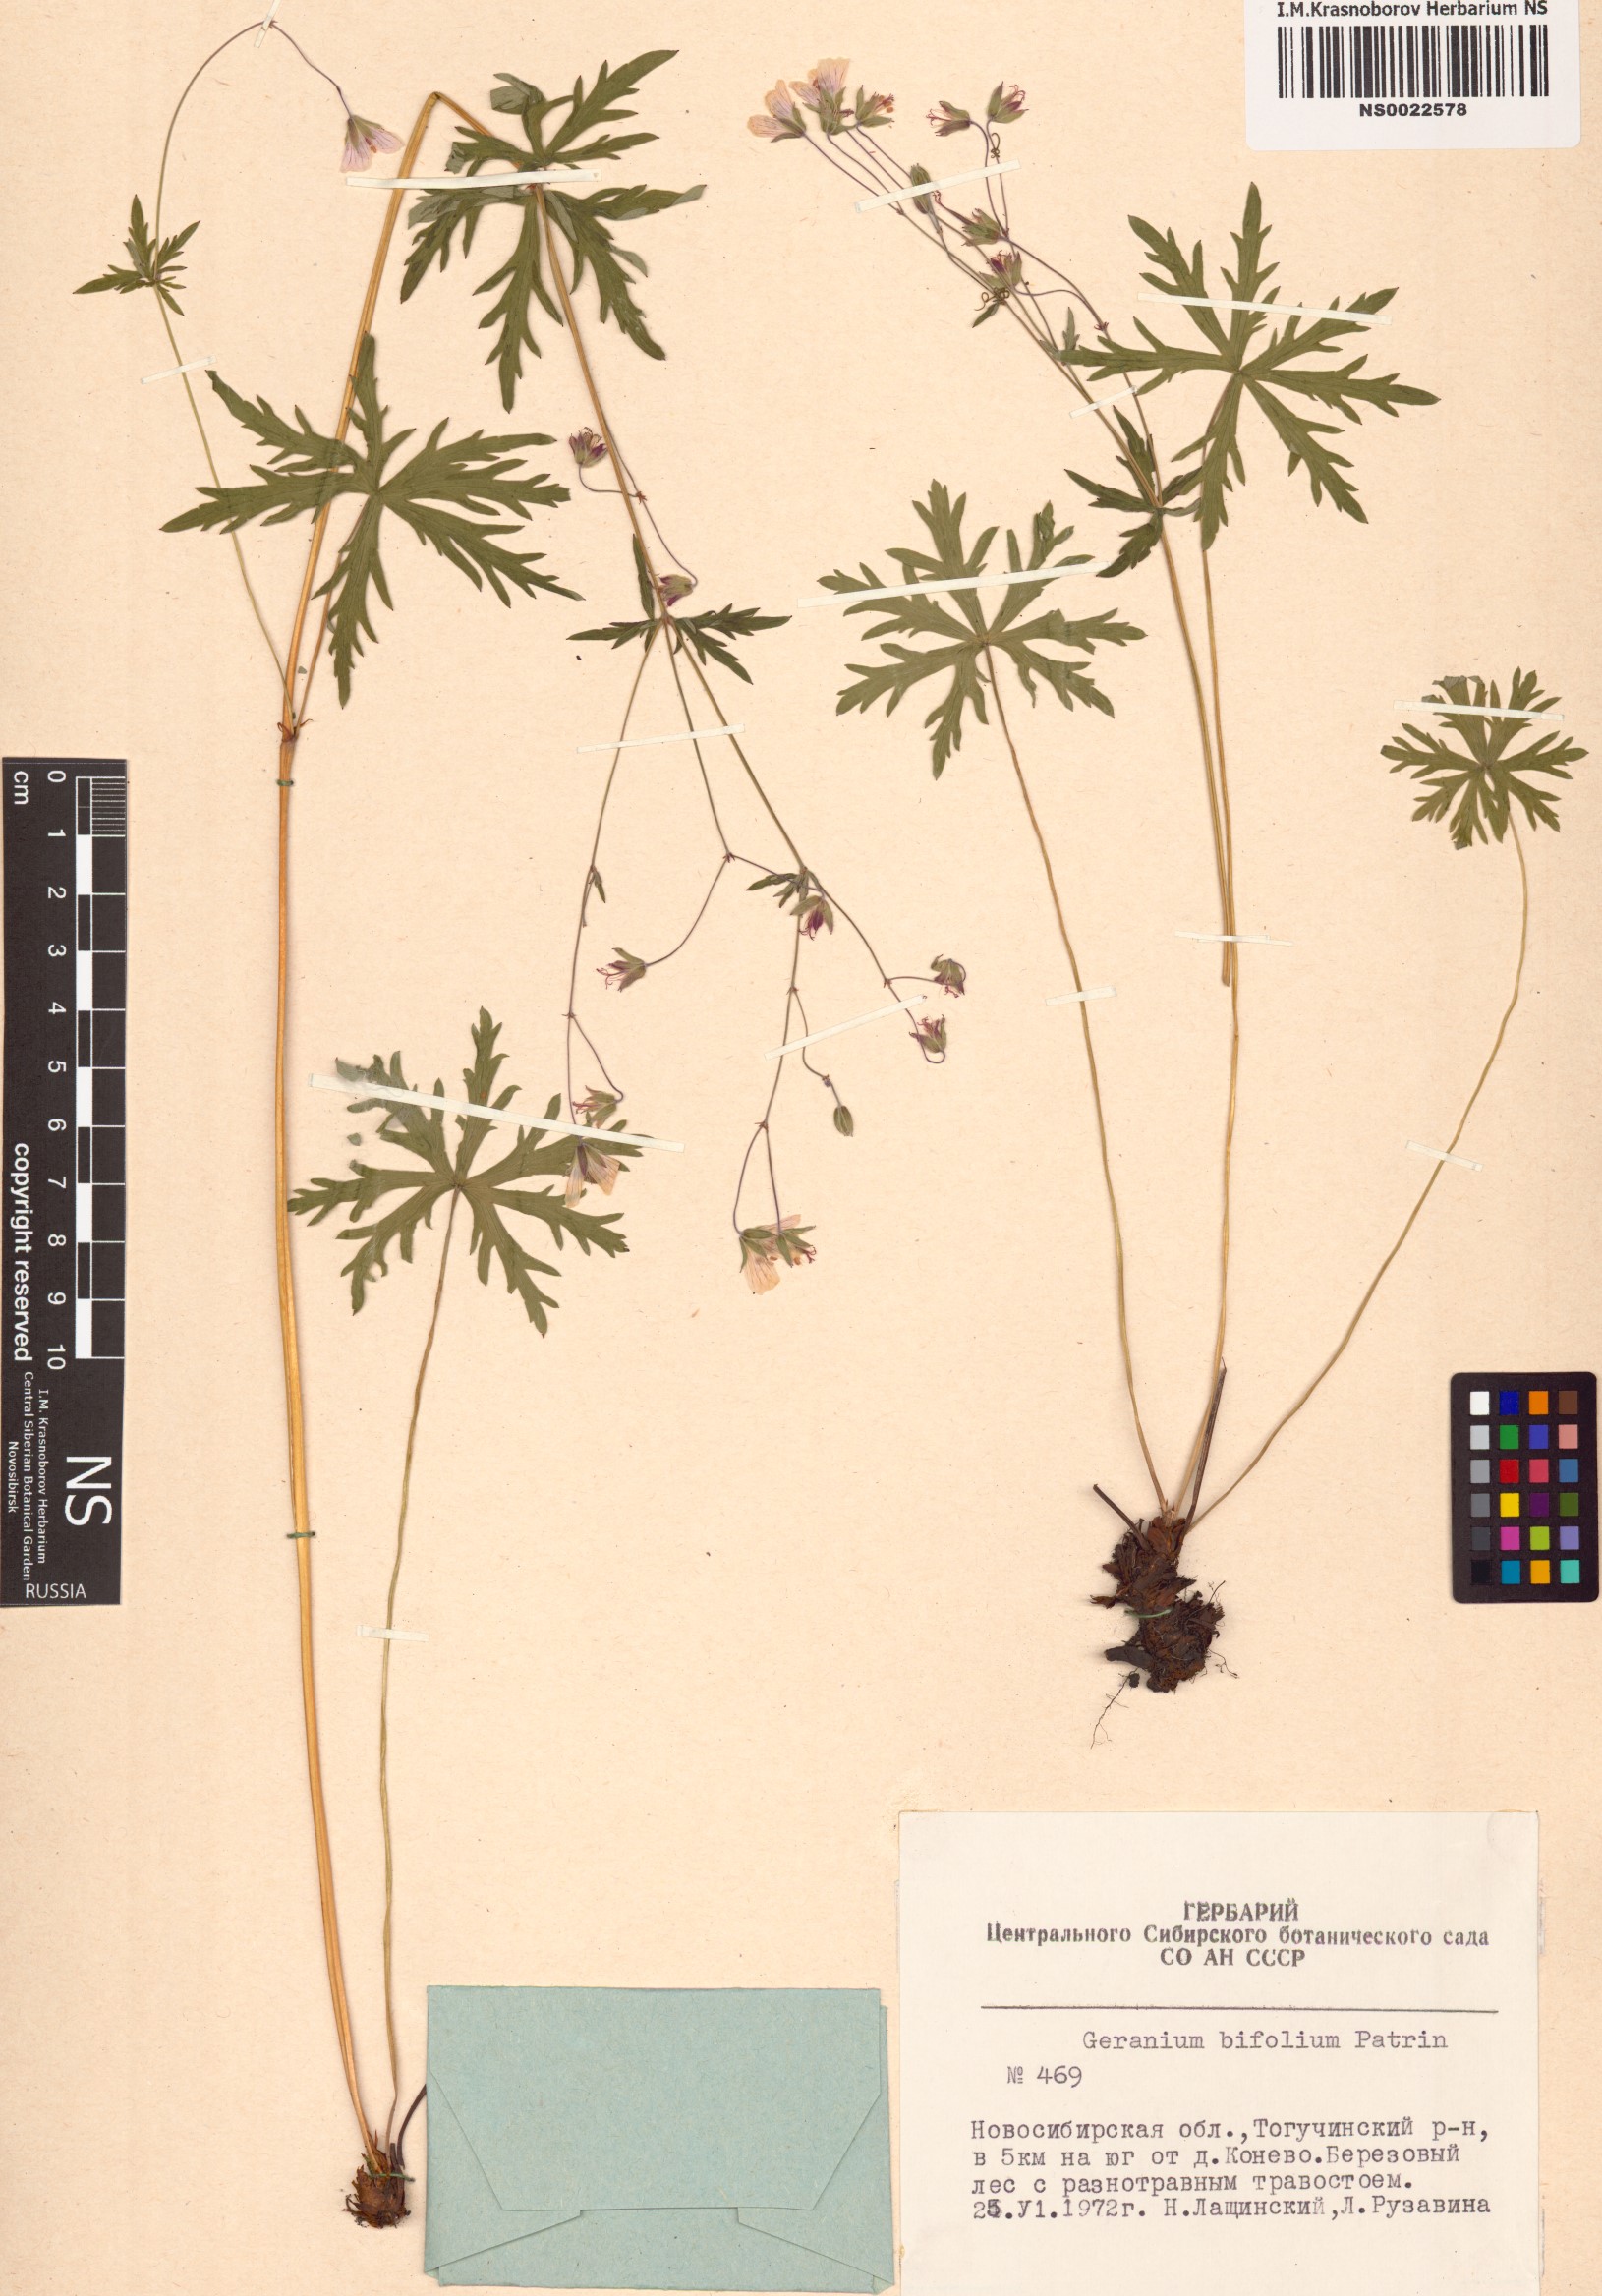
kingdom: Plantae
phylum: Tracheophyta
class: Magnoliopsida
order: Geraniales
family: Geraniaceae
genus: Geranium
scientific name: Geranium pseudosibiricum
